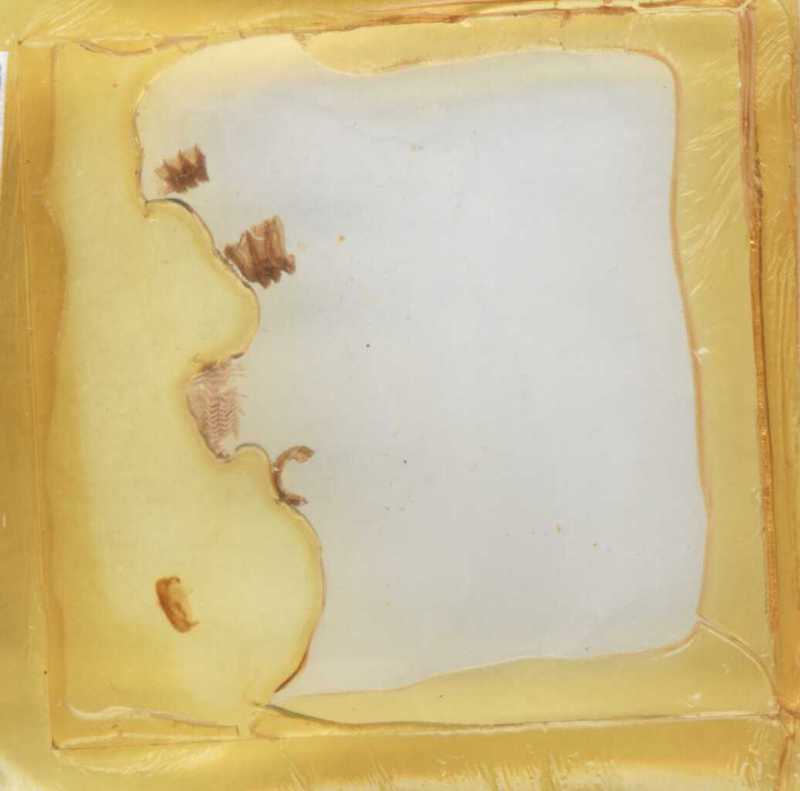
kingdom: Animalia
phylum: Arthropoda
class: Diplopoda
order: Glomerida
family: Glomeridae
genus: Trachysphaera
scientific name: Trachysphaera schmidtii
